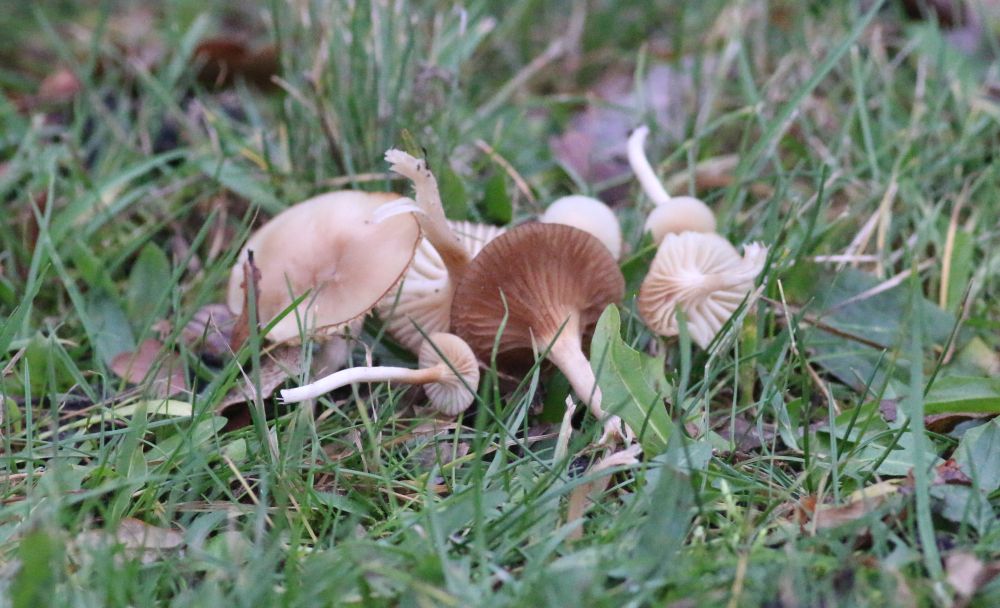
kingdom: Fungi
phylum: Basidiomycota
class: Agaricomycetes
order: Agaricales
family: Hygrophoraceae
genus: Cuphophyllus
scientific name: Cuphophyllus
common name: vokshat
